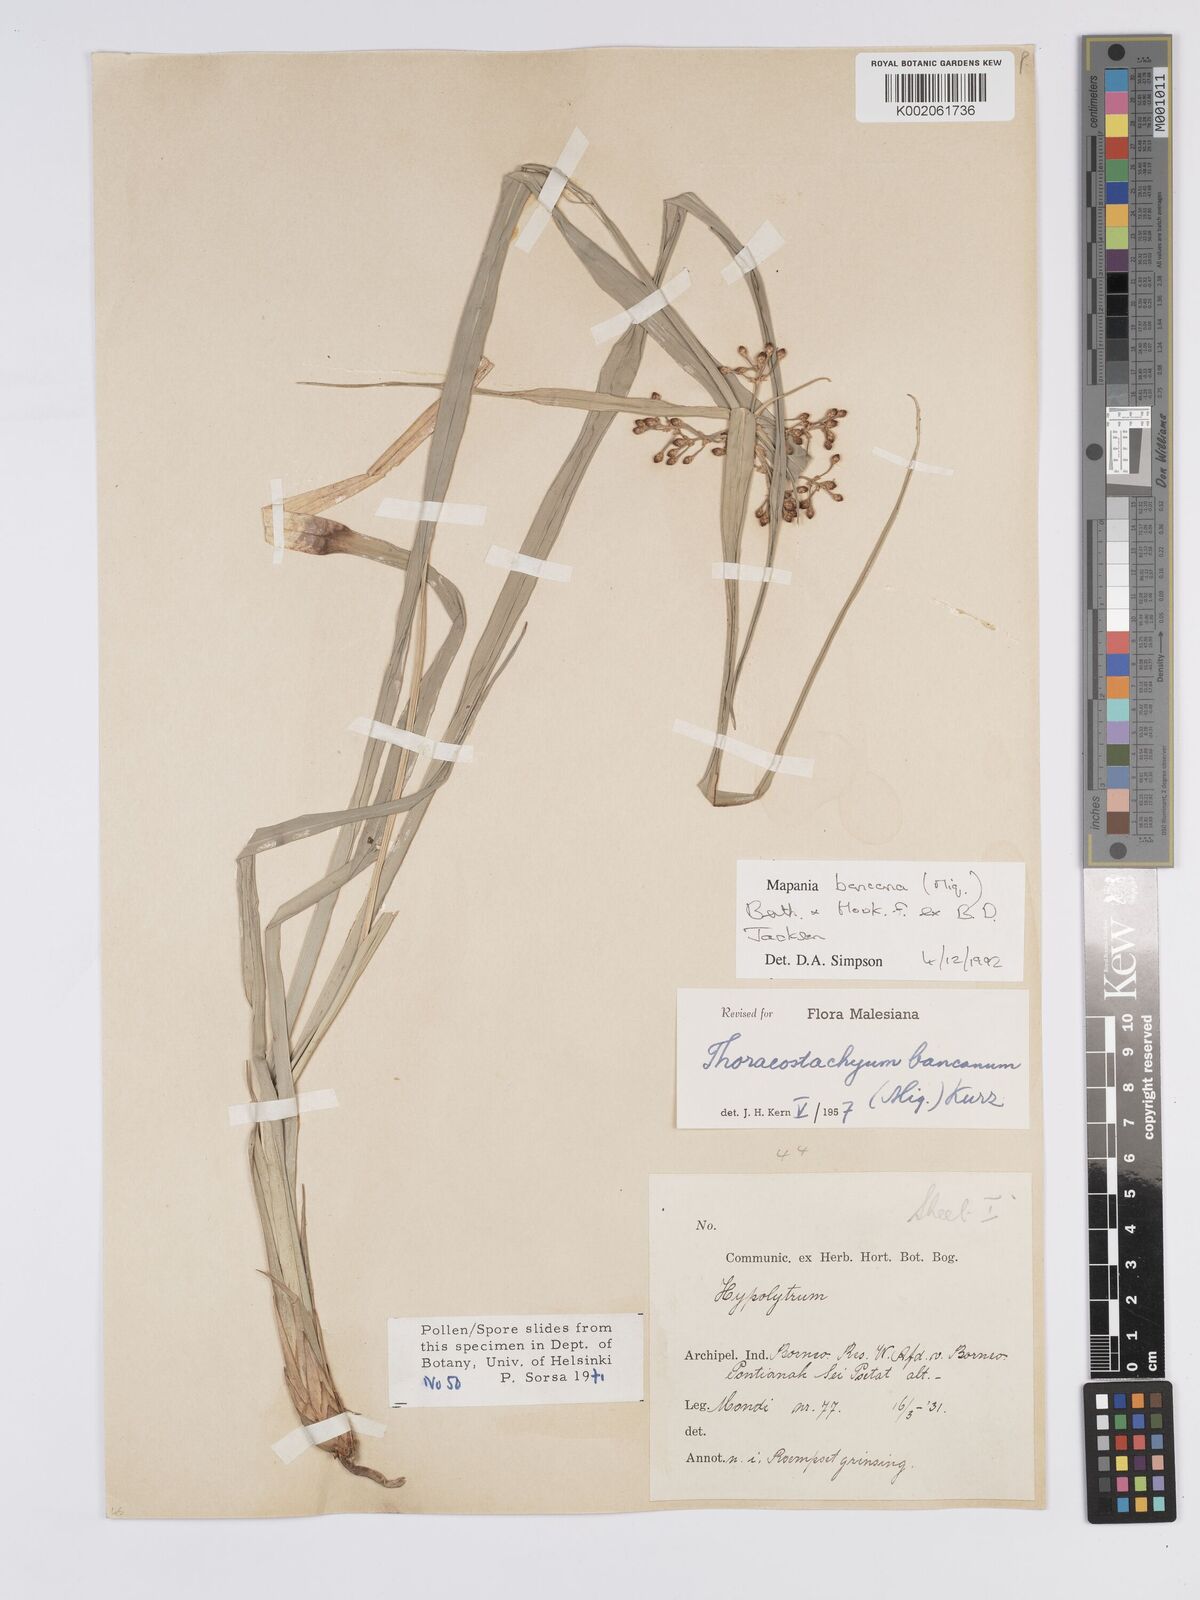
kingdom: Plantae
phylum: Tracheophyta
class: Liliopsida
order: Poales
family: Cyperaceae
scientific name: Cyperaceae
